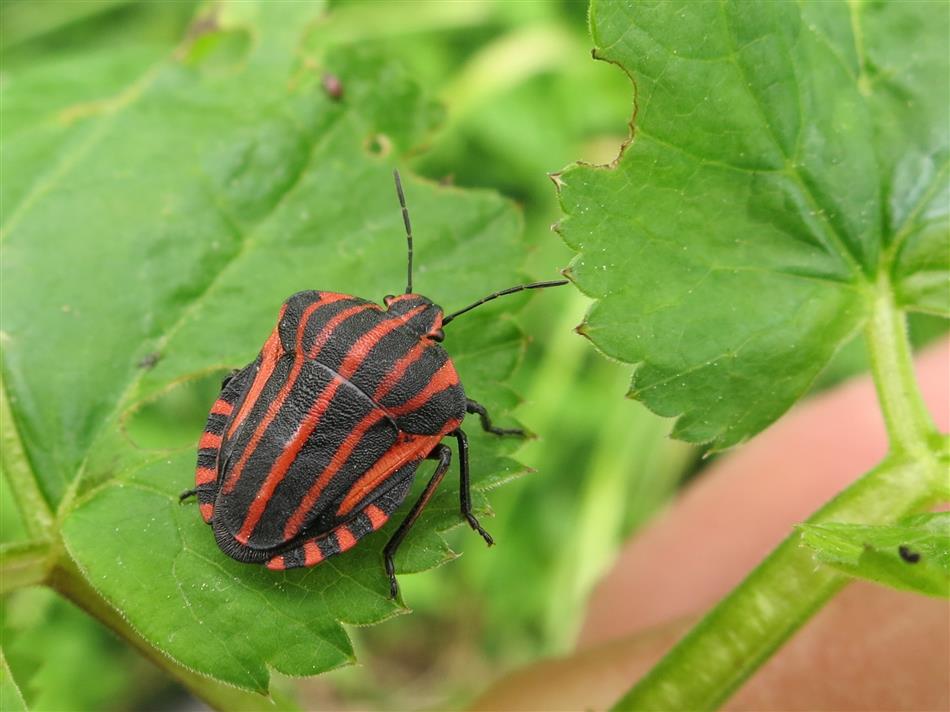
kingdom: Animalia
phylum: Arthropoda
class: Insecta
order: Hemiptera
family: Pentatomidae
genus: Graphosoma
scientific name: Graphosoma italicum
